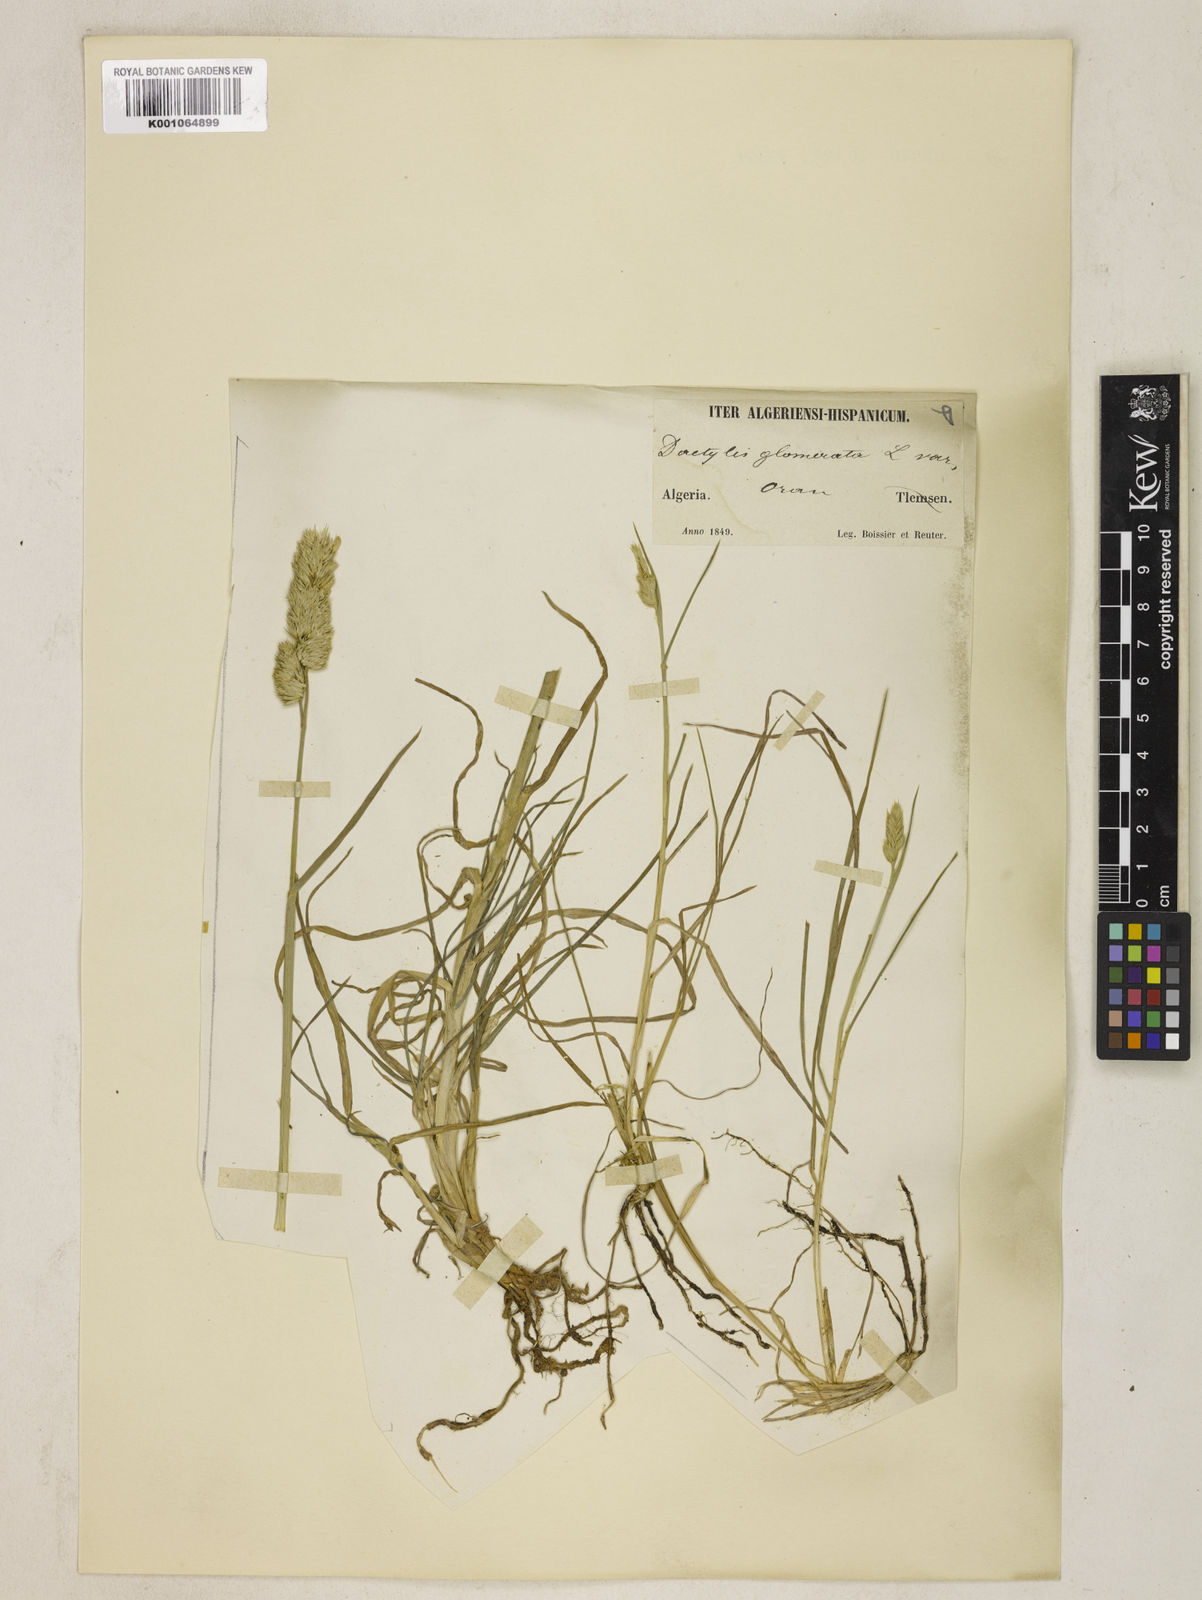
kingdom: Plantae
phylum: Tracheophyta
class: Liliopsida
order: Poales
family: Poaceae
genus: Dactylis
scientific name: Dactylis glomerata
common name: Orchardgrass
